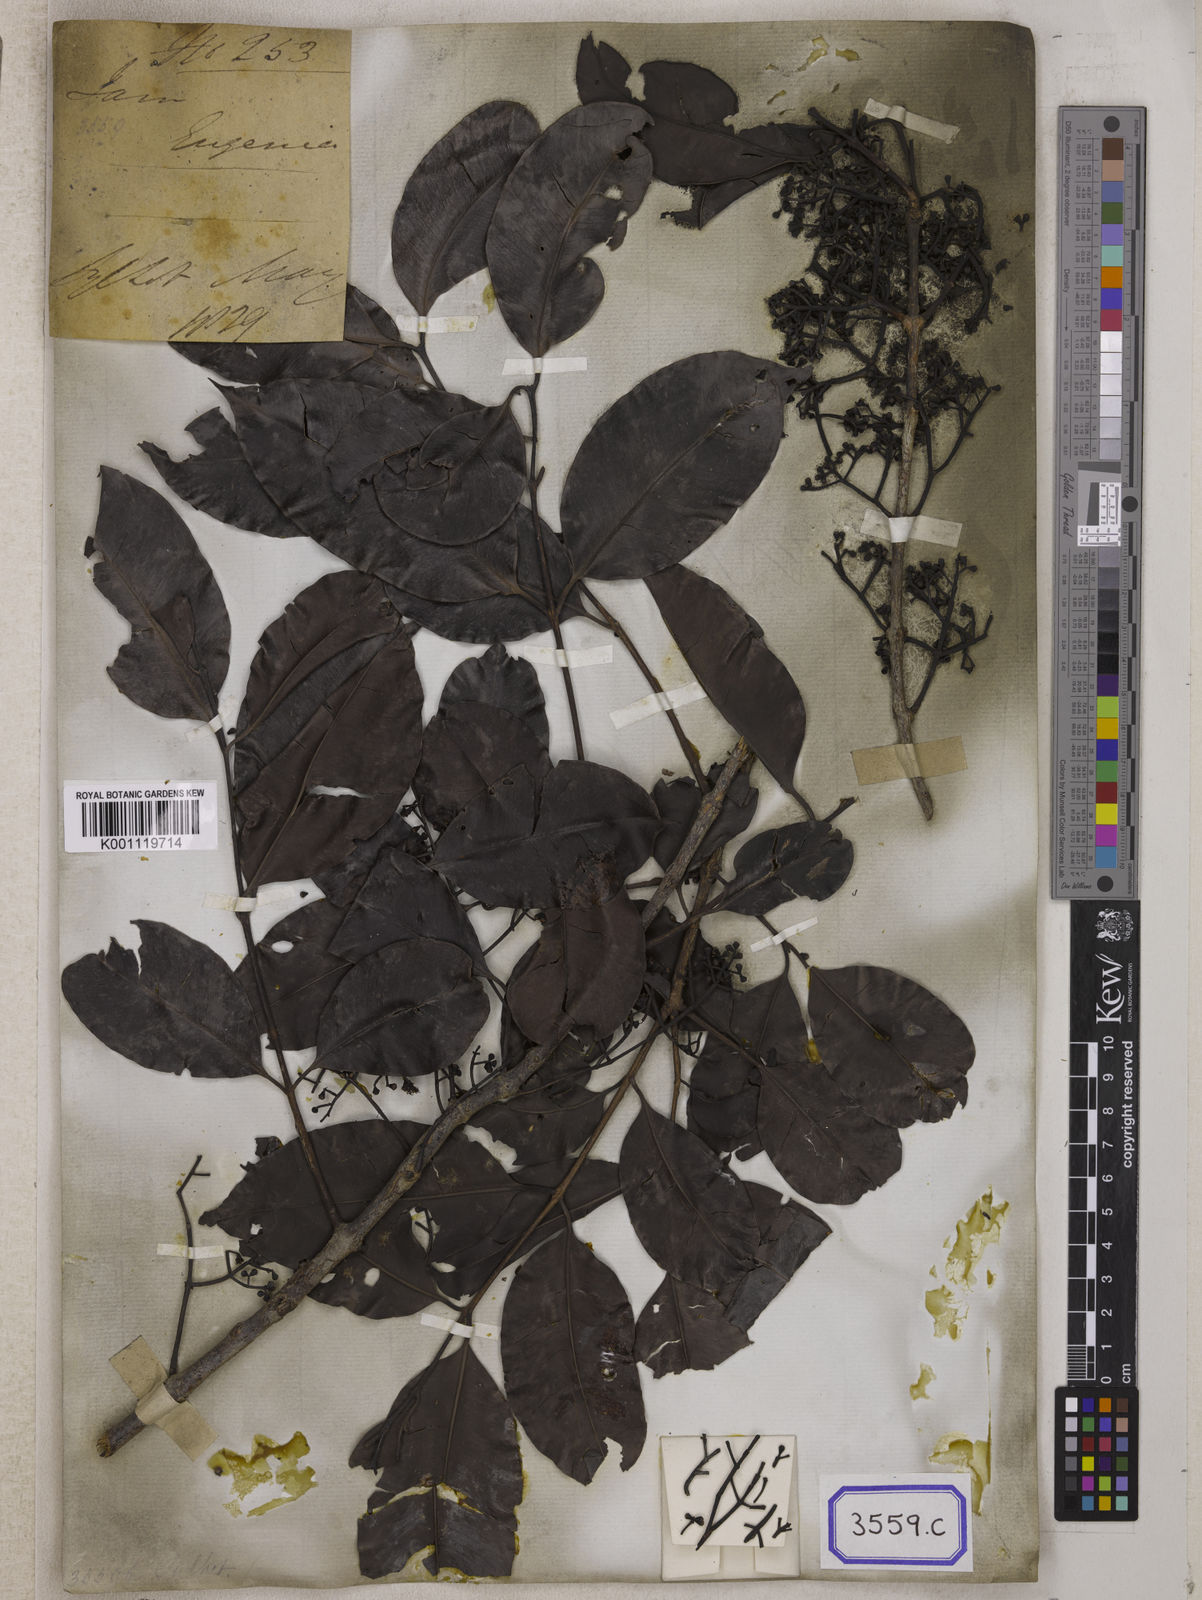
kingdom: Plantae
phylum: Tracheophyta
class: Magnoliopsida
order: Myrtales
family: Myrtaceae
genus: Syzygium
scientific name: Syzygium fruticosum
